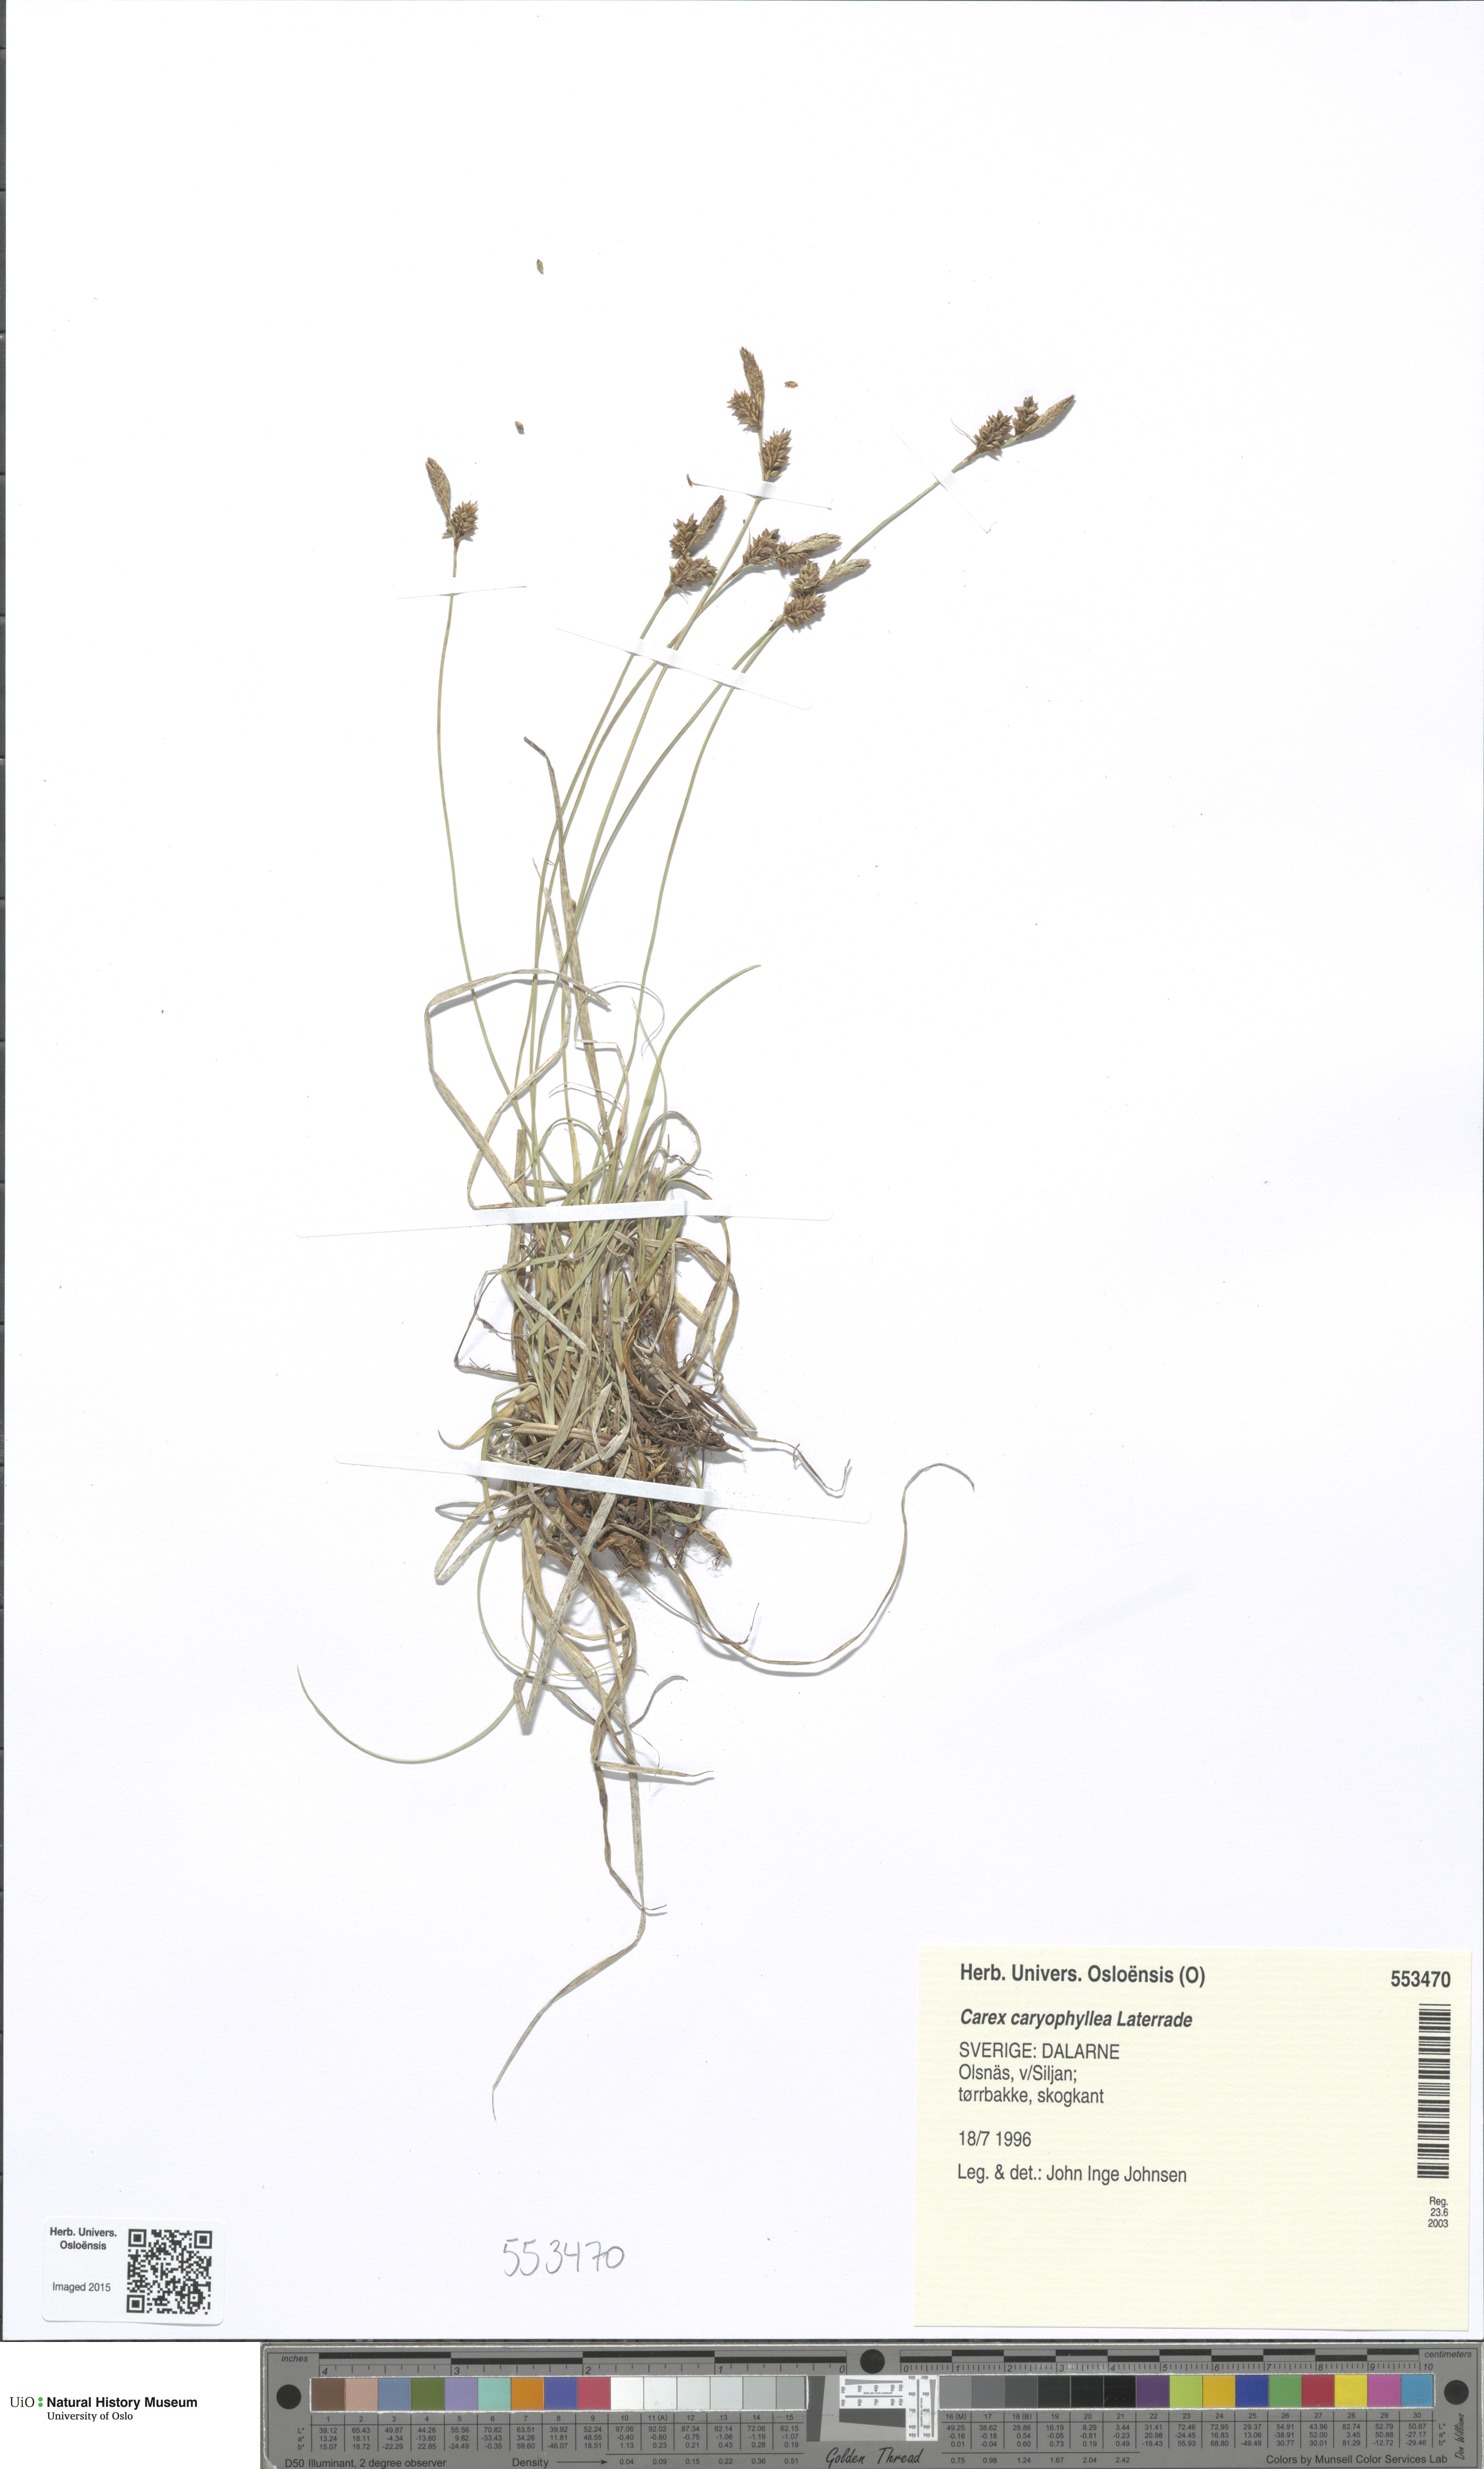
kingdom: Plantae
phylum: Tracheophyta
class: Liliopsida
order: Poales
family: Cyperaceae
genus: Carex
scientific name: Carex caryophyllea
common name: Spring sedge
